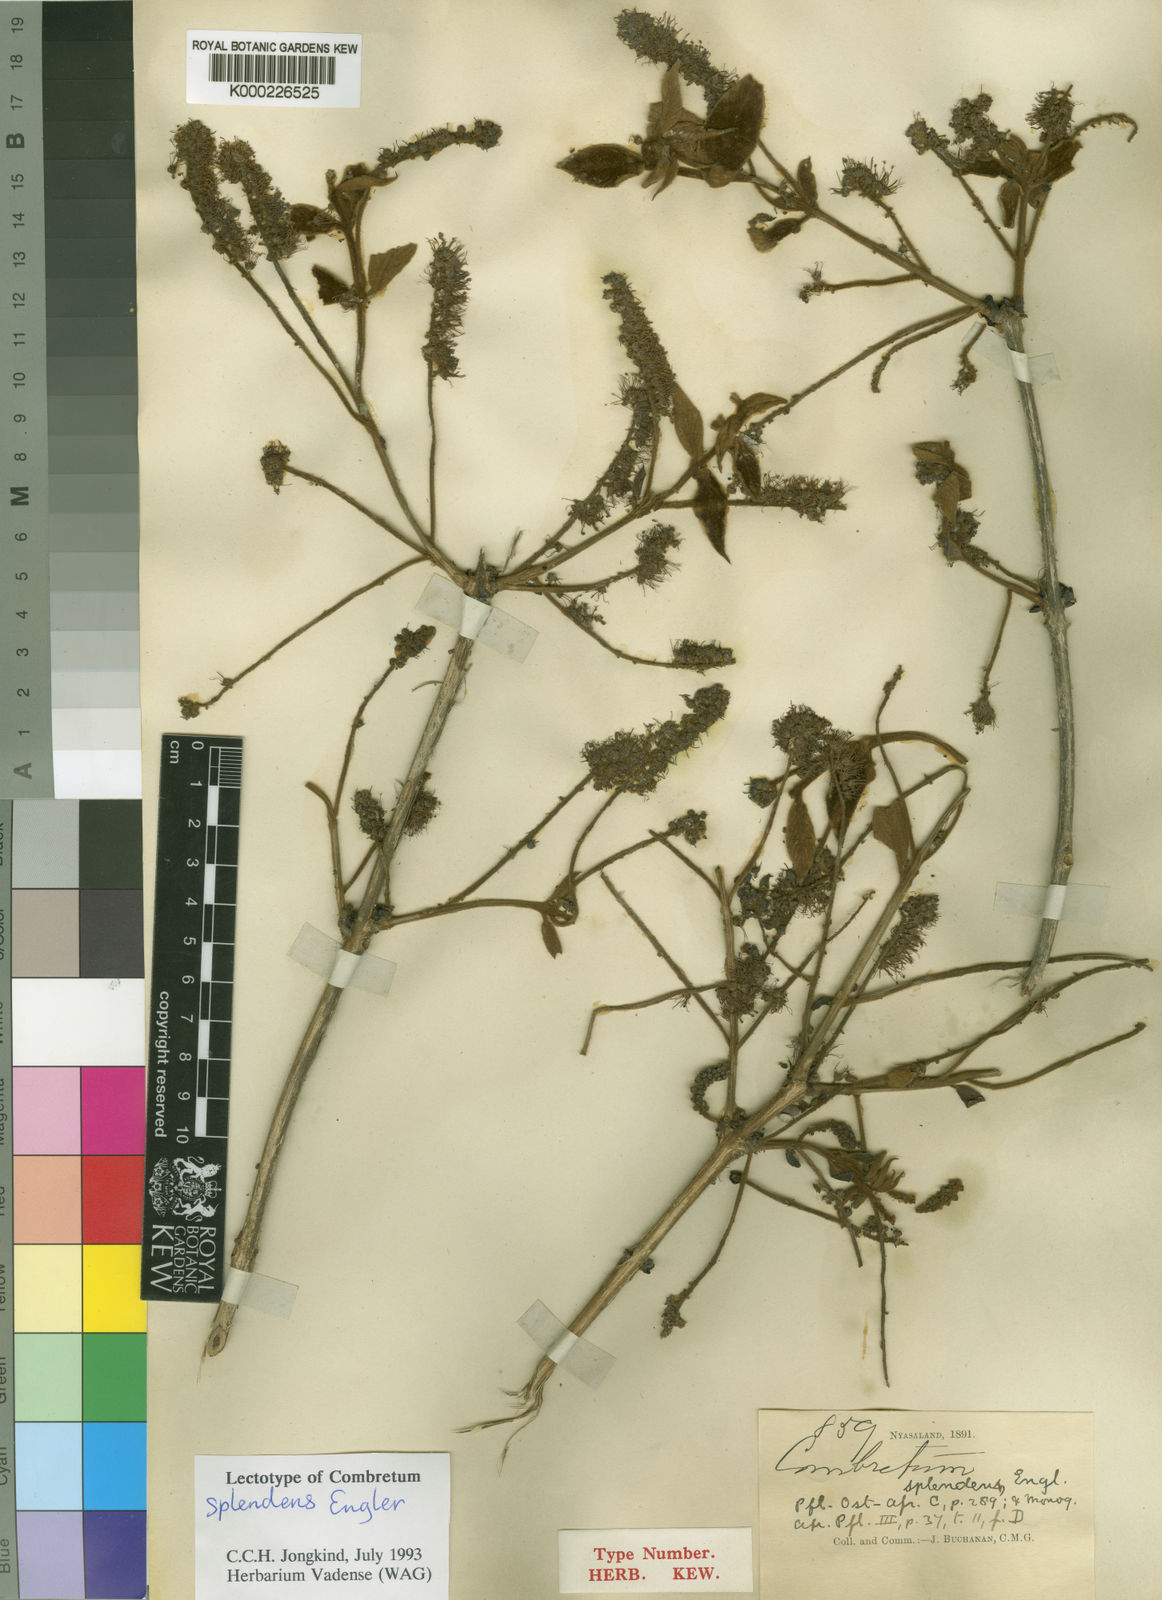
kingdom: Plantae
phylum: Tracheophyta
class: Magnoliopsida
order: Myrtales
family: Combretaceae
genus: Combretum
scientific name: Combretum molle
